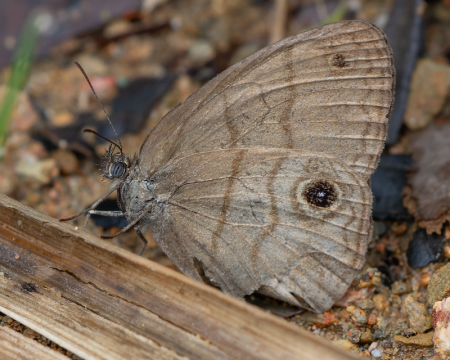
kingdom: Animalia
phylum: Arthropoda
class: Insecta
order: Lepidoptera
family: Nymphalidae
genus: Hermeuptychia
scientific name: Hermeuptychia harmonia
